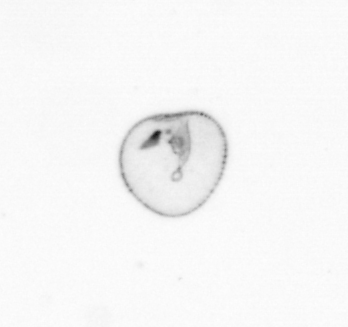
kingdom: Chromista
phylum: Myzozoa
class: Dinophyceae
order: Noctilucales
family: Noctilucaceae
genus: Noctiluca
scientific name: Noctiluca scintillans
